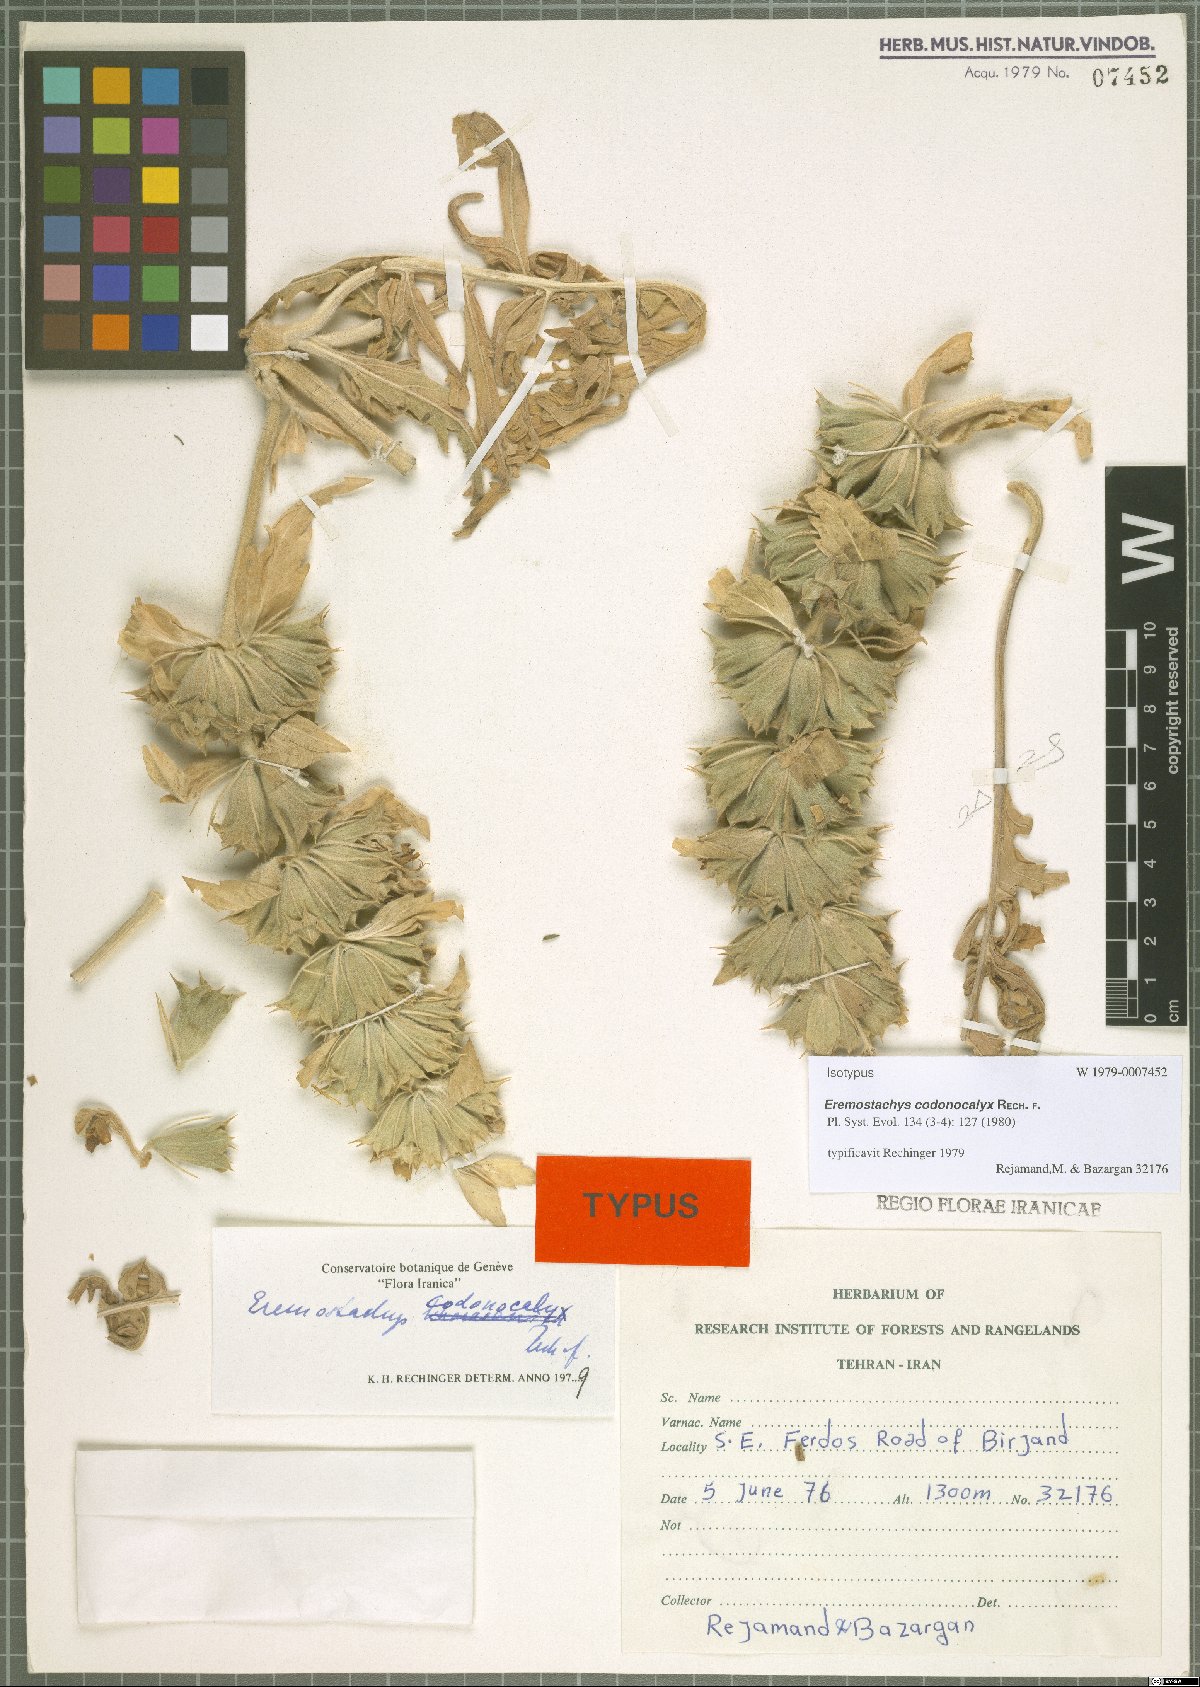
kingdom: Plantae
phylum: Tracheophyta
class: Magnoliopsida
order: Lamiales
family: Lamiaceae
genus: Phlomoides
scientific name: Phlomoides codonocalyx
